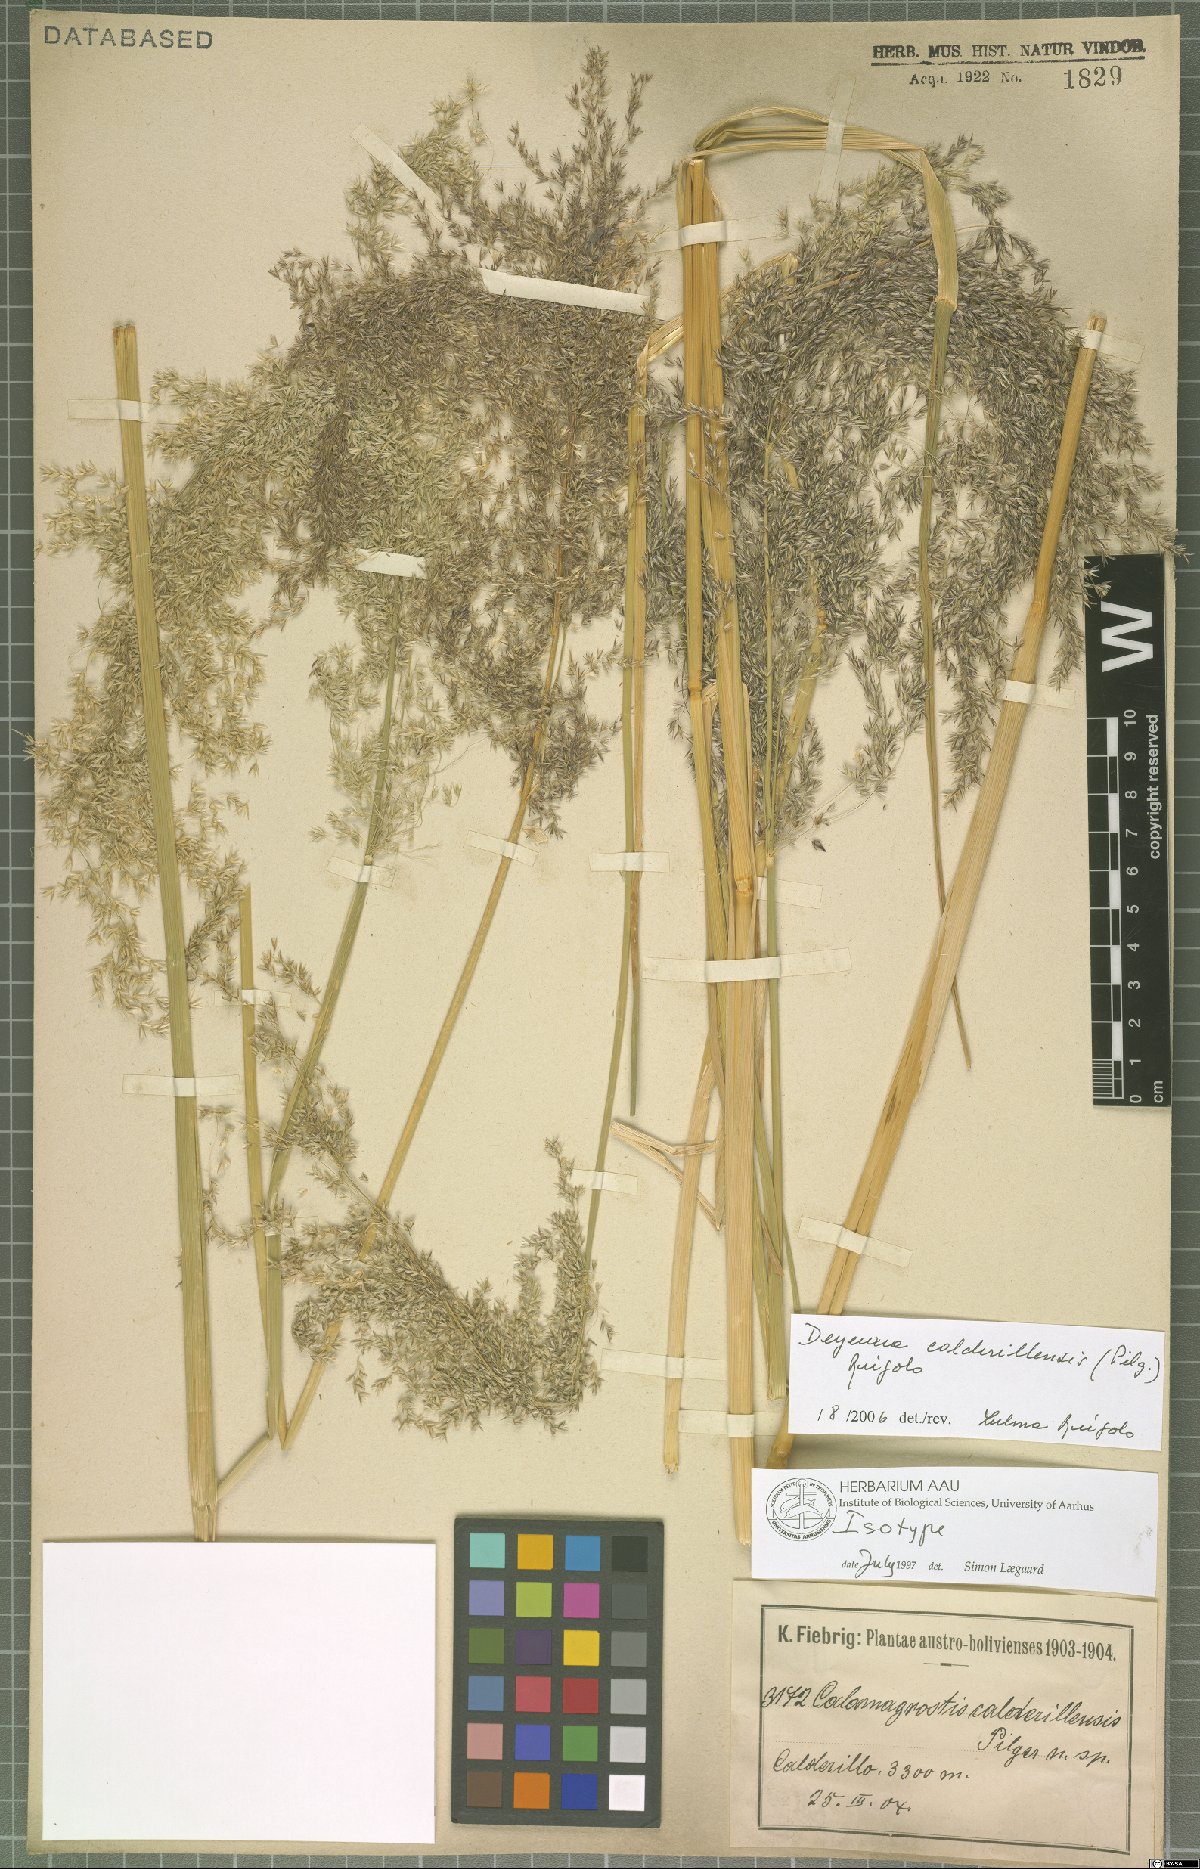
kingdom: Plantae
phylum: Tracheophyta
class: Liliopsida
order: Poales
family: Poaceae
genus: Cinnagrostis
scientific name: Cinnagrostis calderillensis
